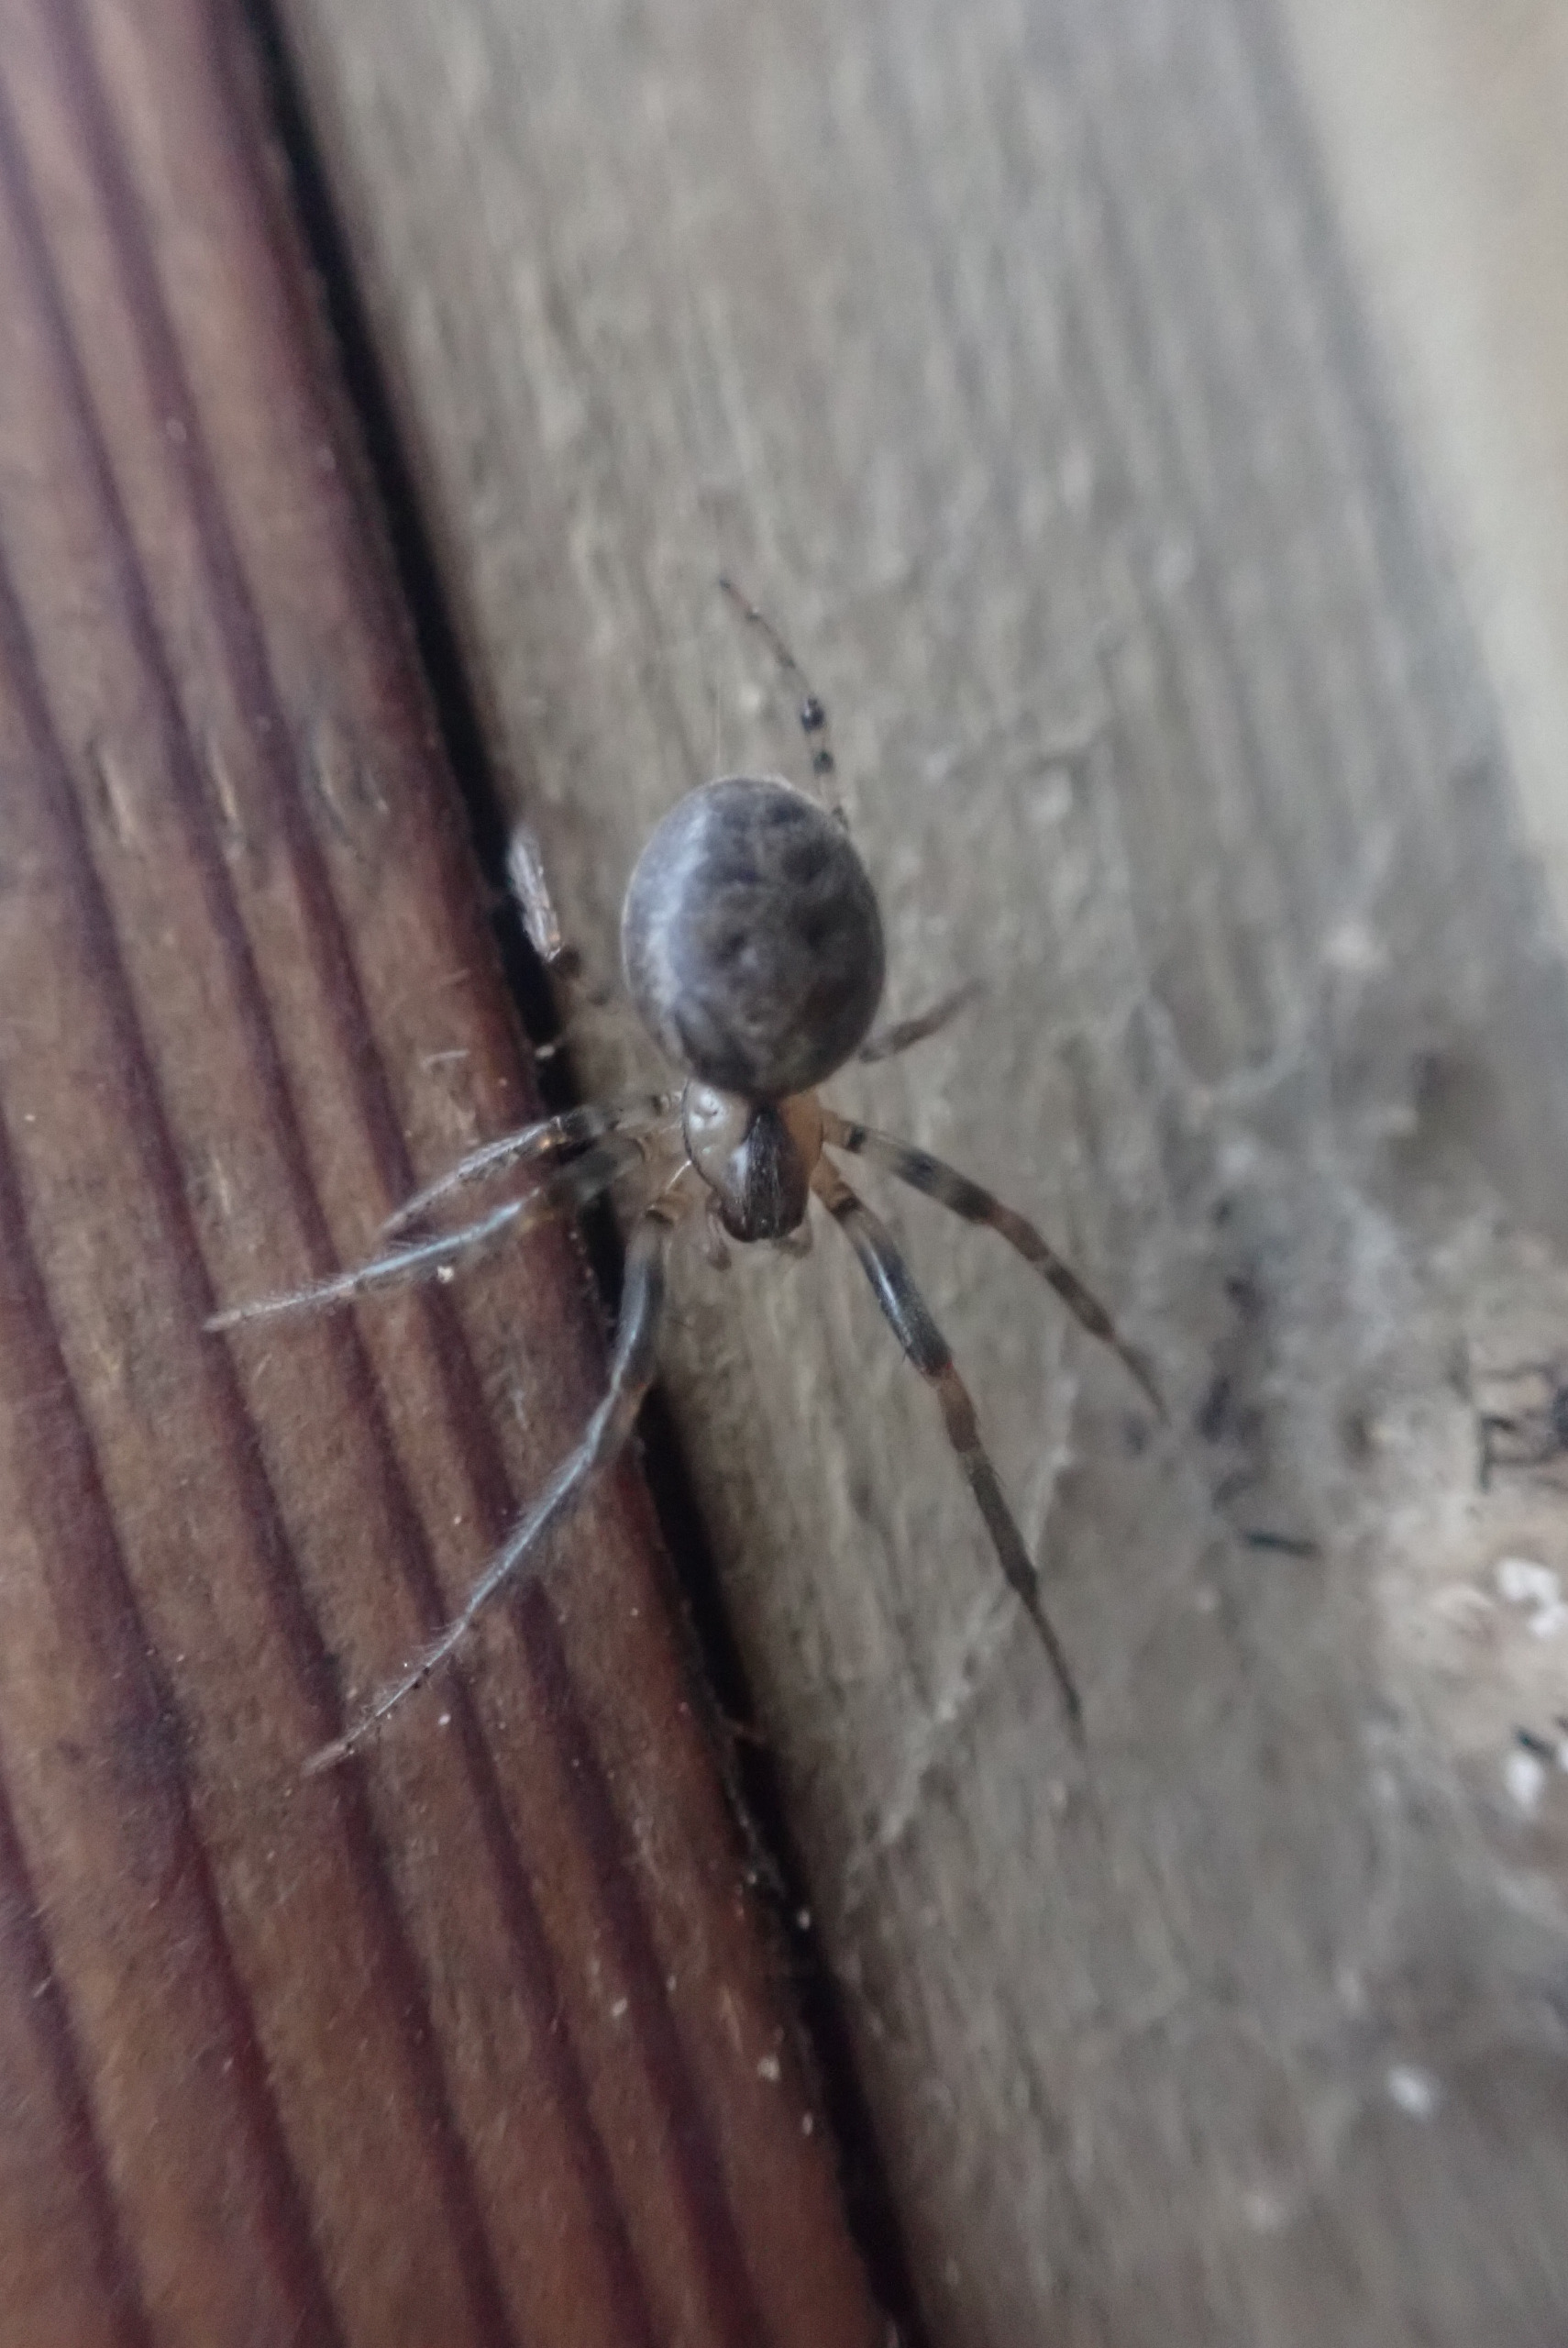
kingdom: Animalia
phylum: Arthropoda
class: Arachnida
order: Araneae
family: Araneidae
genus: Nuctenea
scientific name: Nuctenea umbratica
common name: Flad hjulspinder
